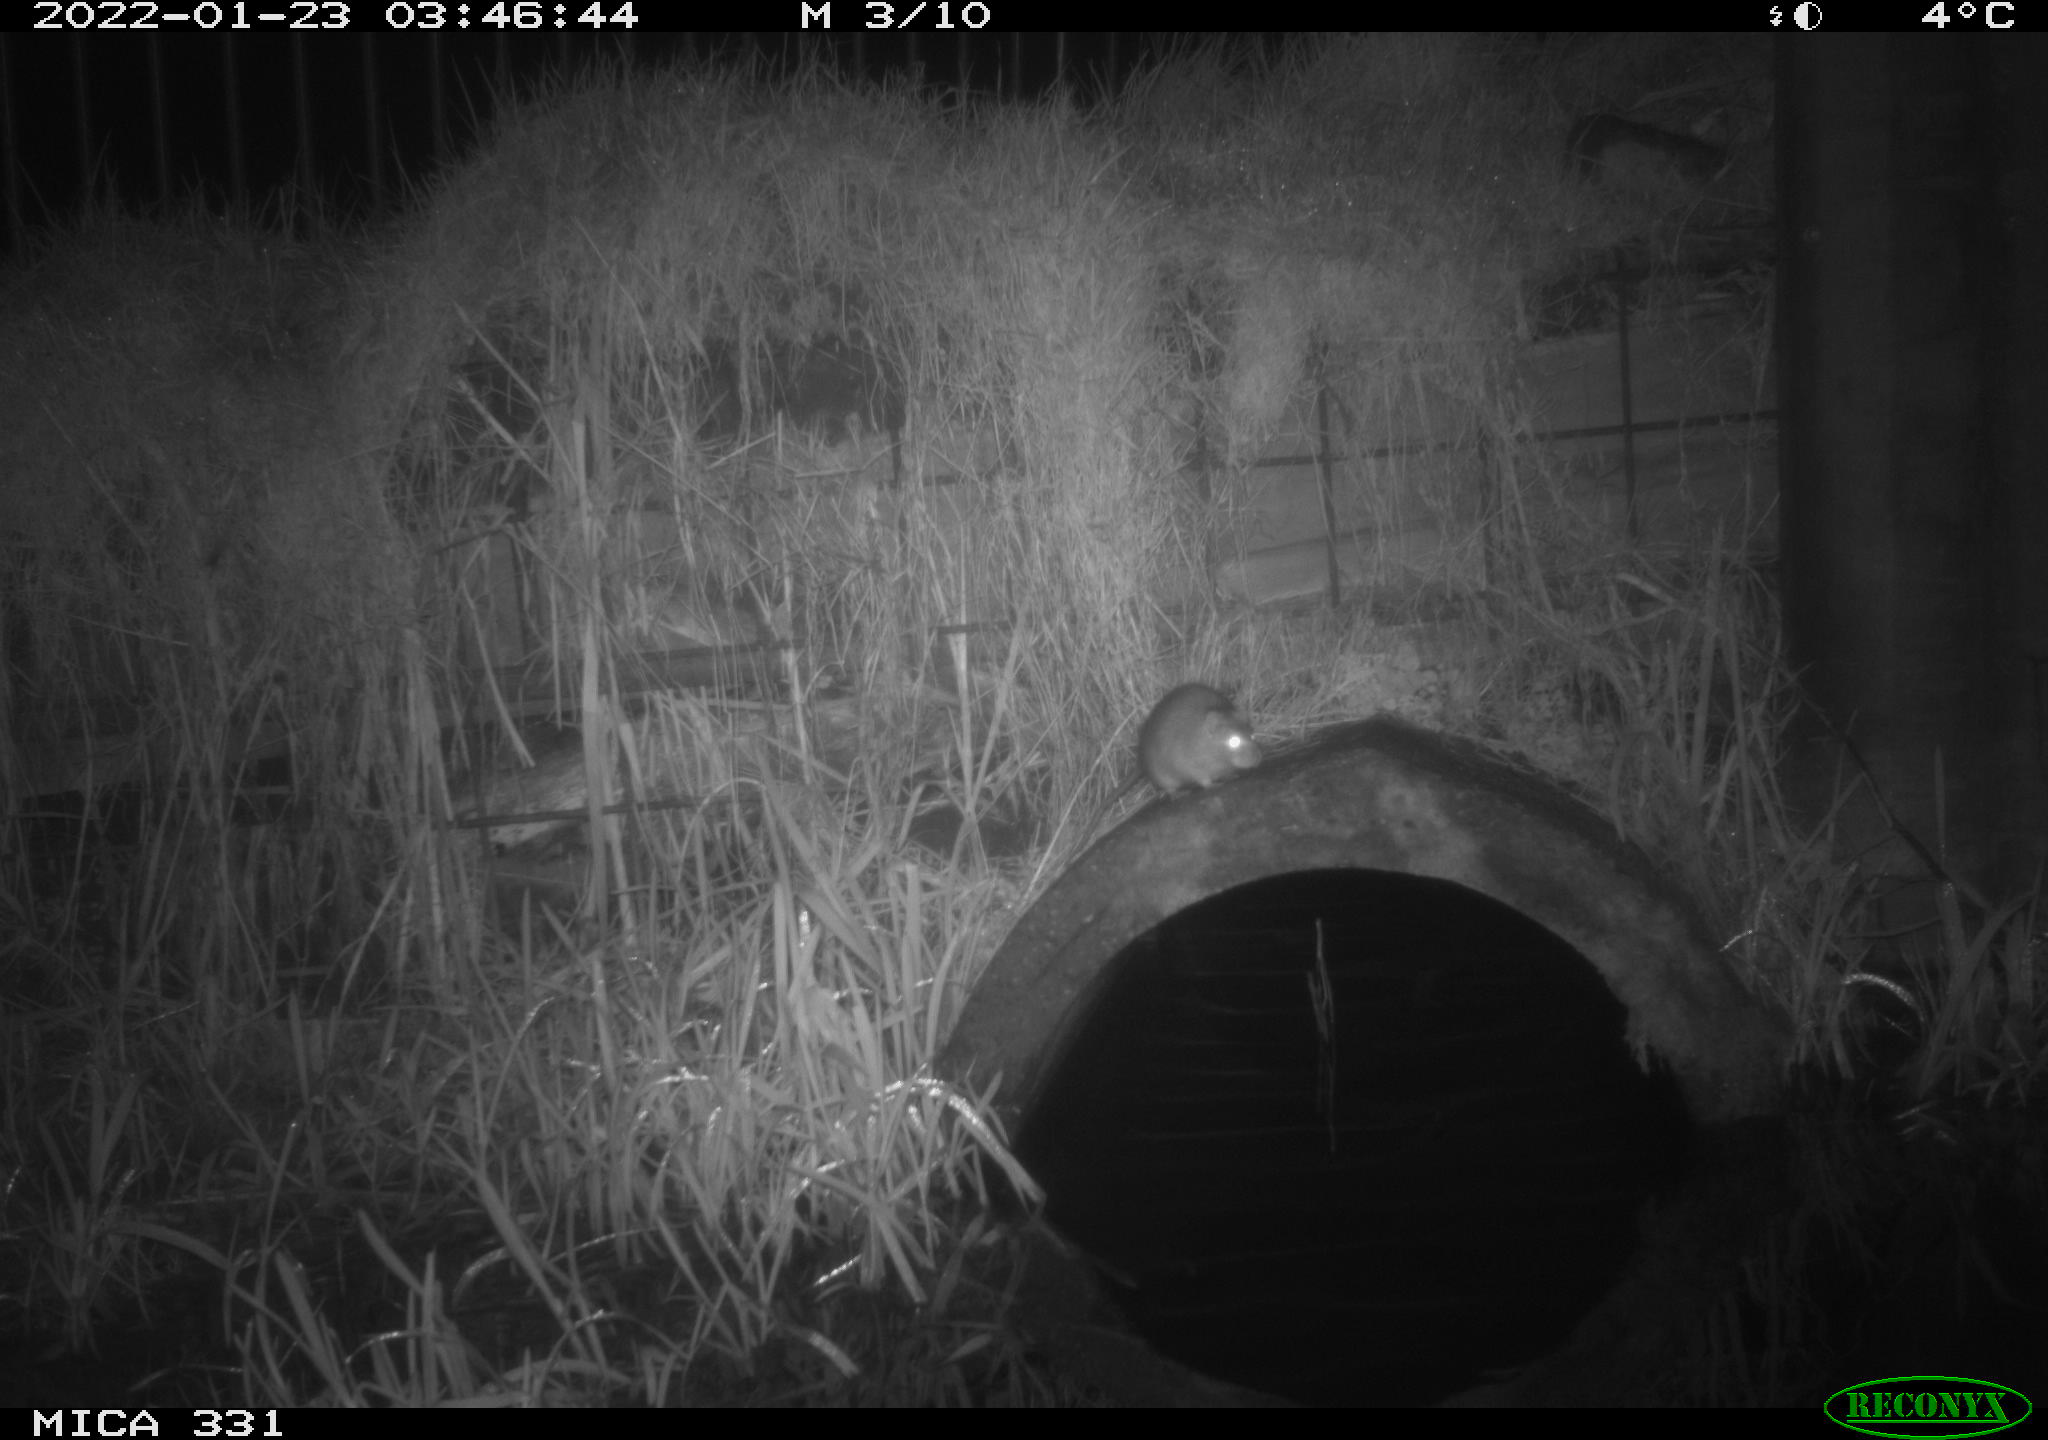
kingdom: Animalia
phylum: Chordata
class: Mammalia
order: Rodentia
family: Muridae
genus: Rattus
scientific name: Rattus norvegicus
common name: Brown rat
